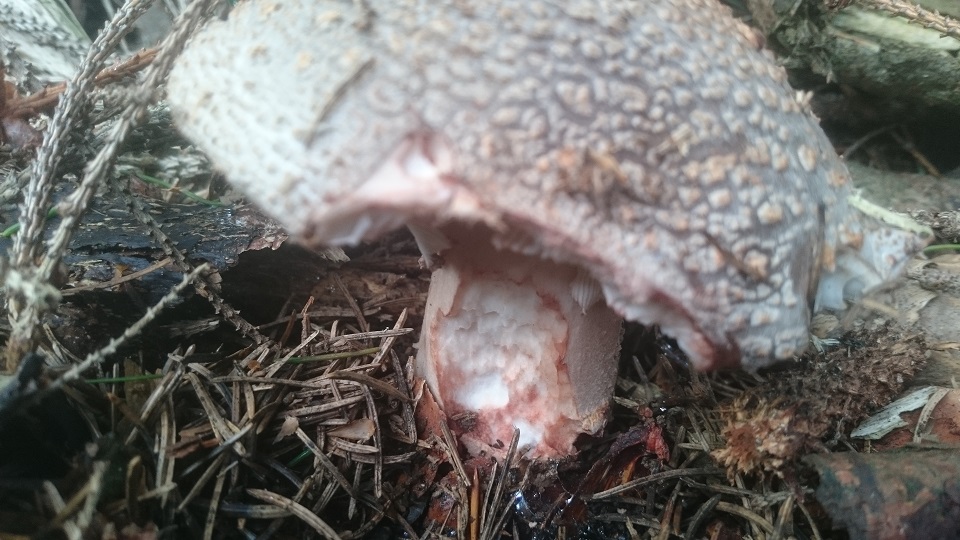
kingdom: Fungi
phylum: Basidiomycota
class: Agaricomycetes
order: Agaricales
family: Amanitaceae
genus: Amanita
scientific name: Amanita rubescens
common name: rødmende fluesvamp
